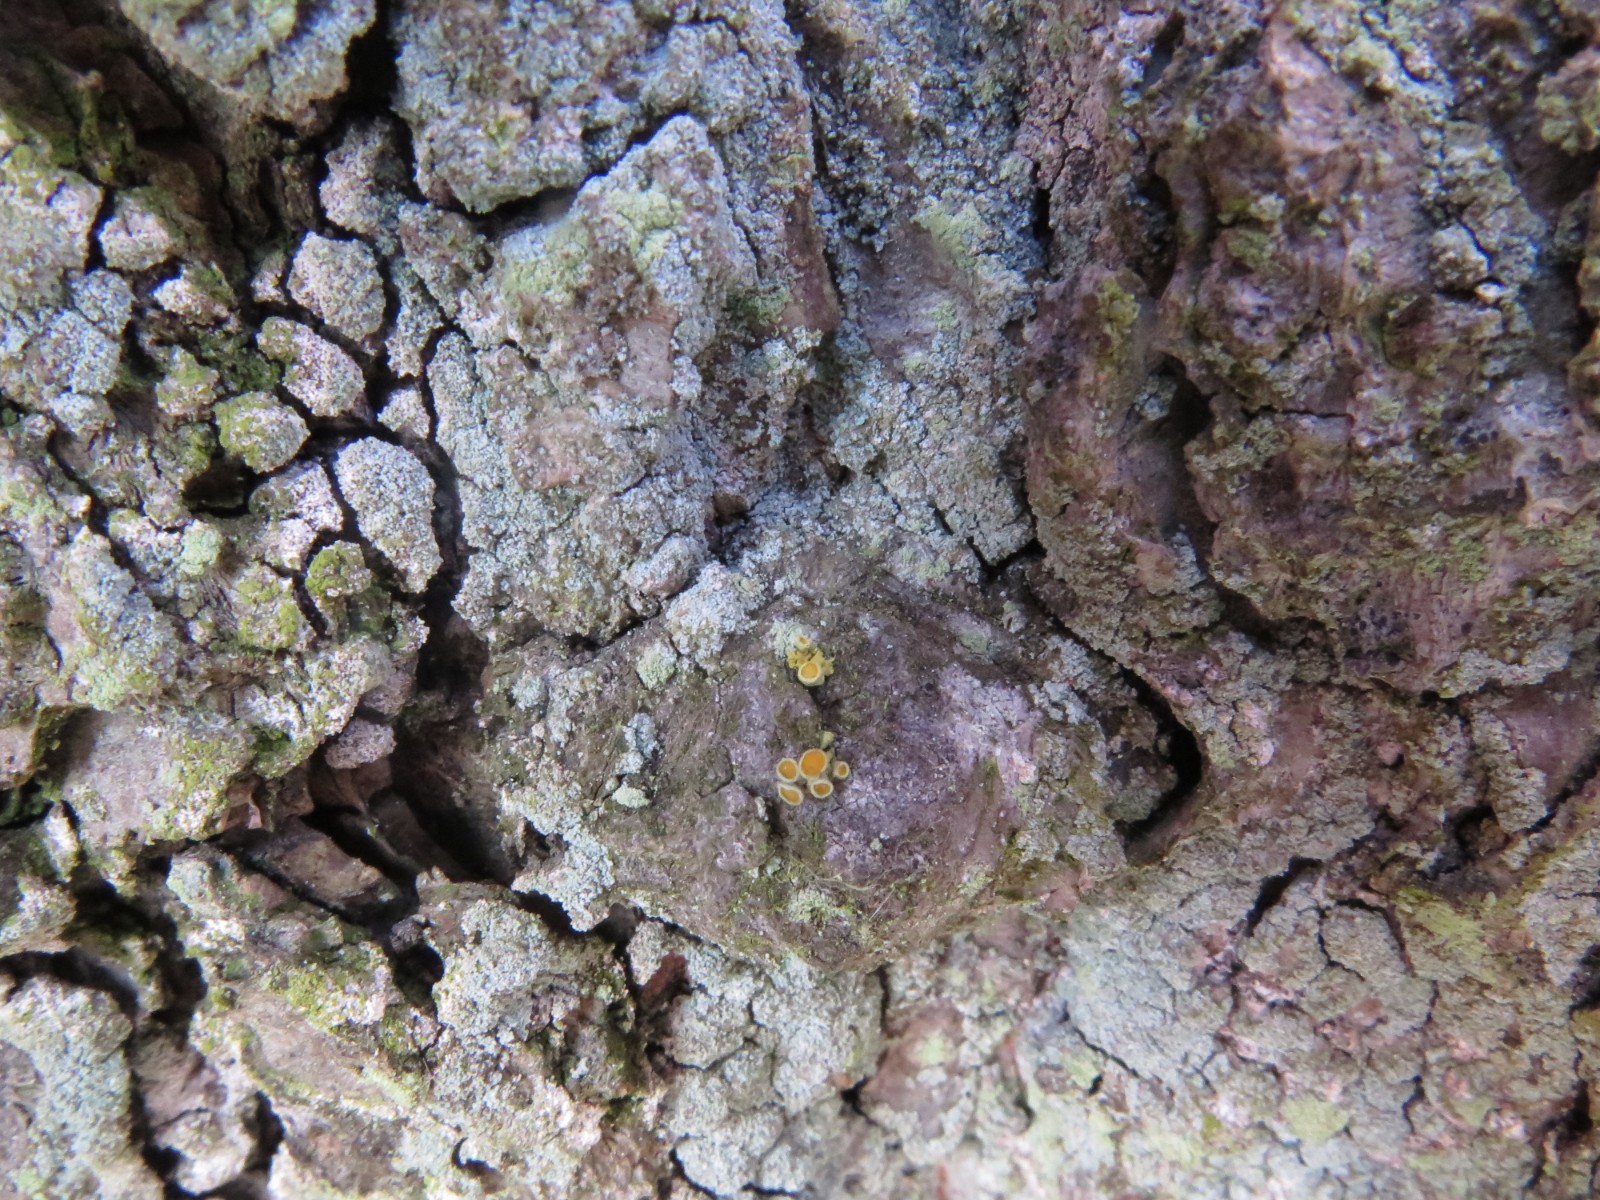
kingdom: Fungi
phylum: Ascomycota
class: Lecanoromycetes
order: Teloschistales
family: Teloschistaceae
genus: Polycauliona
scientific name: Polycauliona polycarpa
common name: mangefrugtet orangelav
